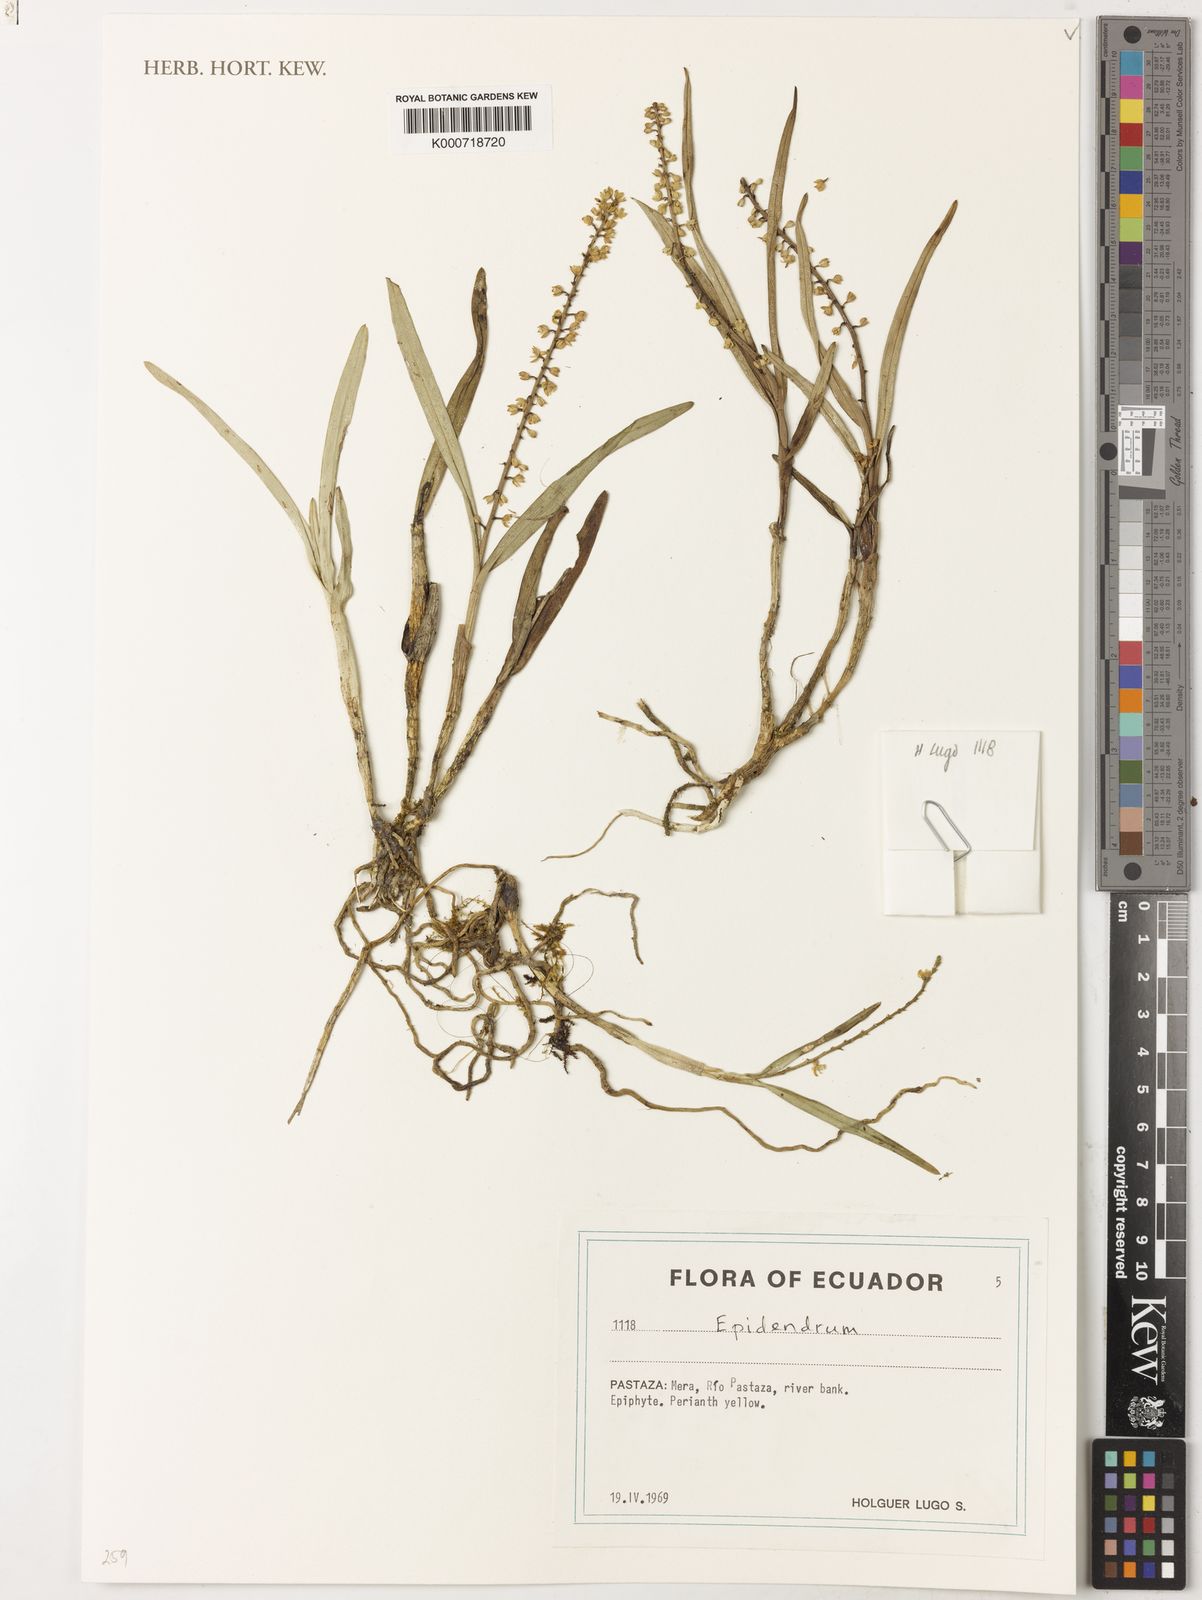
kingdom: Plantae
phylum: Tracheophyta
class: Liliopsida
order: Asparagales
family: Orchidaceae
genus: Epidendrum
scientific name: Epidendrum
